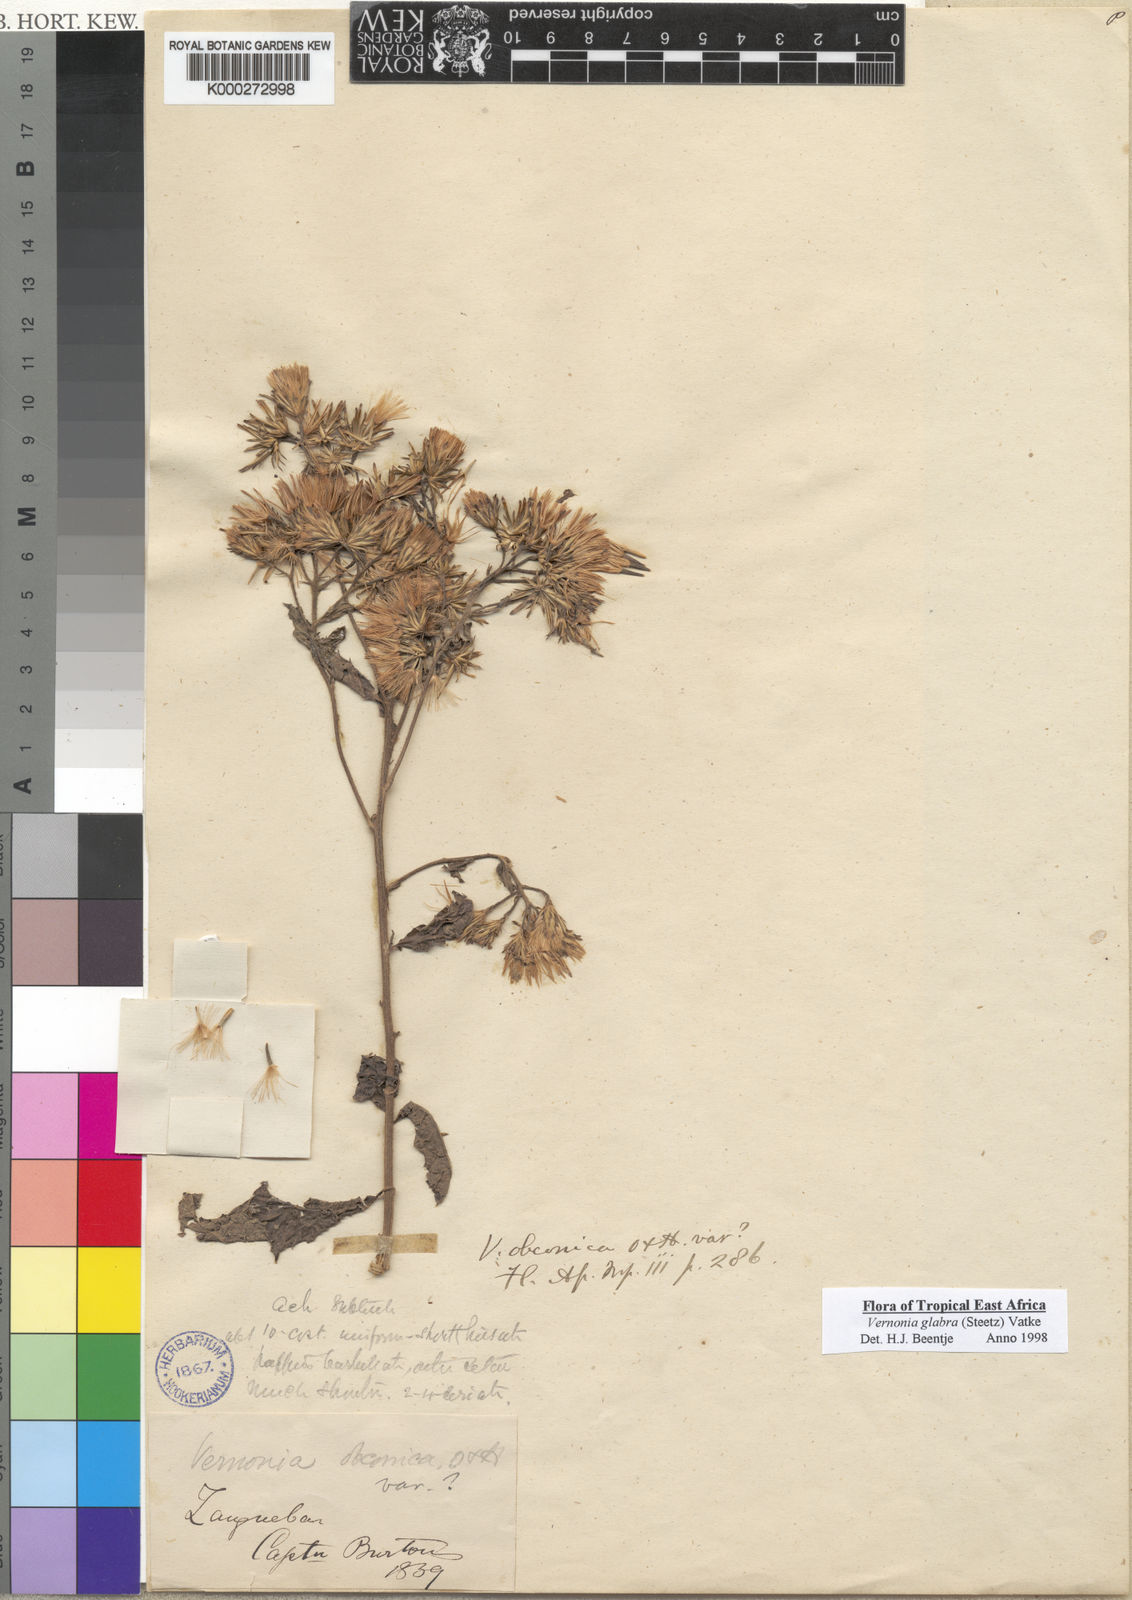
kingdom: Plantae
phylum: Tracheophyta
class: Magnoliopsida
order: Asterales
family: Asteraceae
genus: Linzia
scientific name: Linzia glabra
